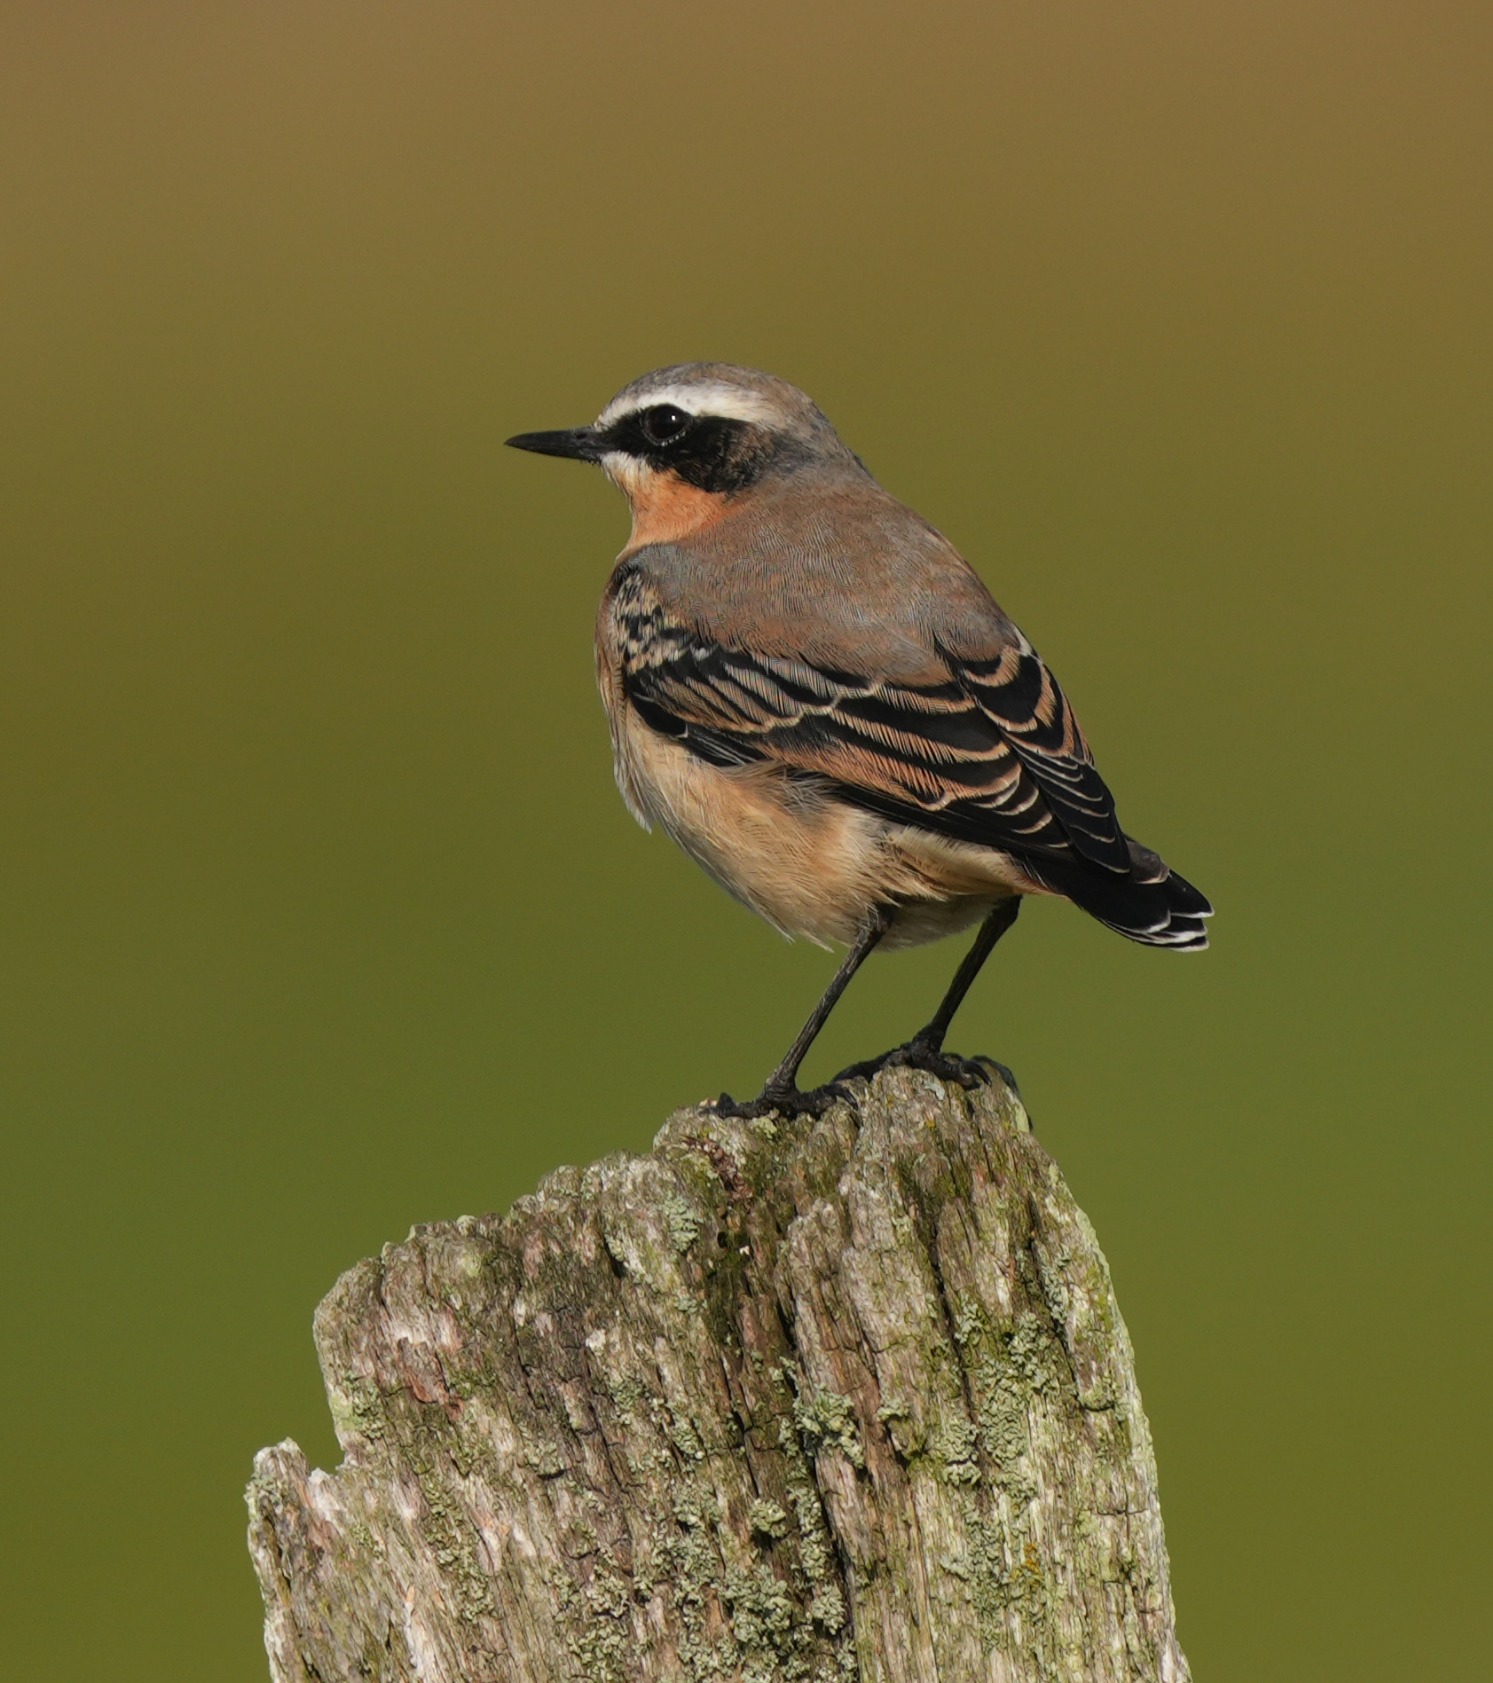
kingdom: Animalia
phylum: Chordata
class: Aves
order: Passeriformes
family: Muscicapidae
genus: Oenanthe
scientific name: Oenanthe oenanthe
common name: Stenpikker
